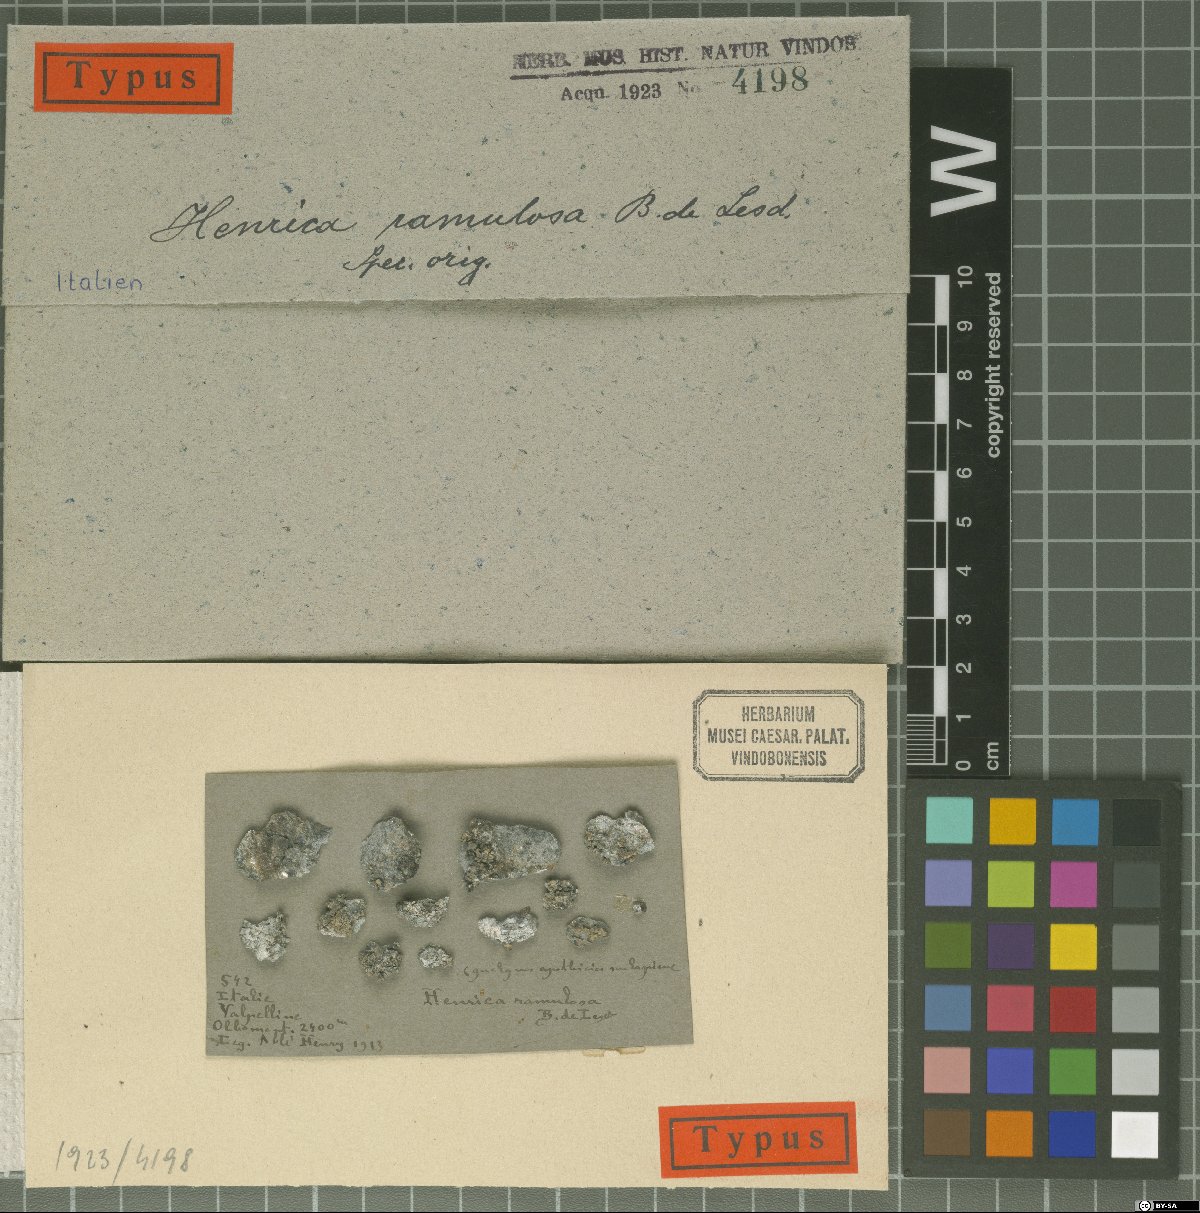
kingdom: Fungi
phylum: Ascomycota
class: Eurotiomycetes
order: Verrucariales
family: Verrucariaceae
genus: Henrica
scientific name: Henrica ramulosa
